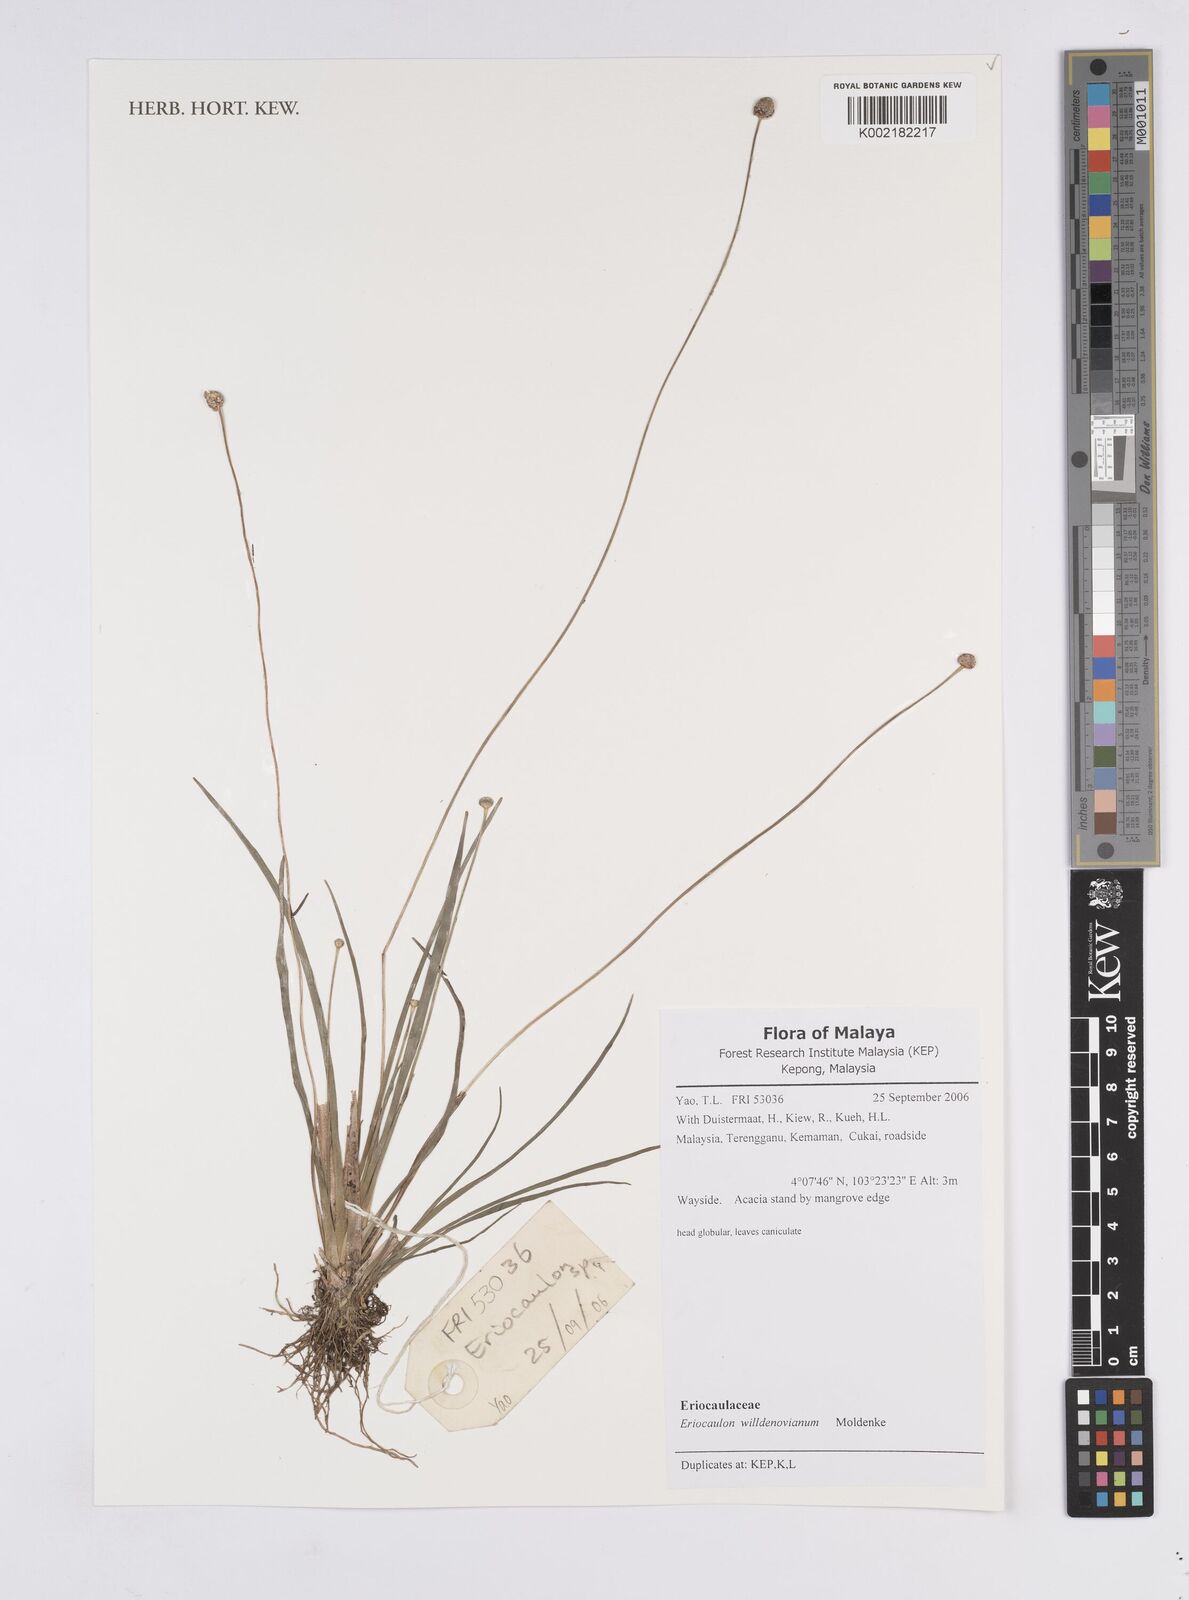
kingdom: Plantae
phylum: Tracheophyta
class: Liliopsida
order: Poales
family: Eriocaulaceae
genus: Eriocaulon
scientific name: Eriocaulon willdenovianum
